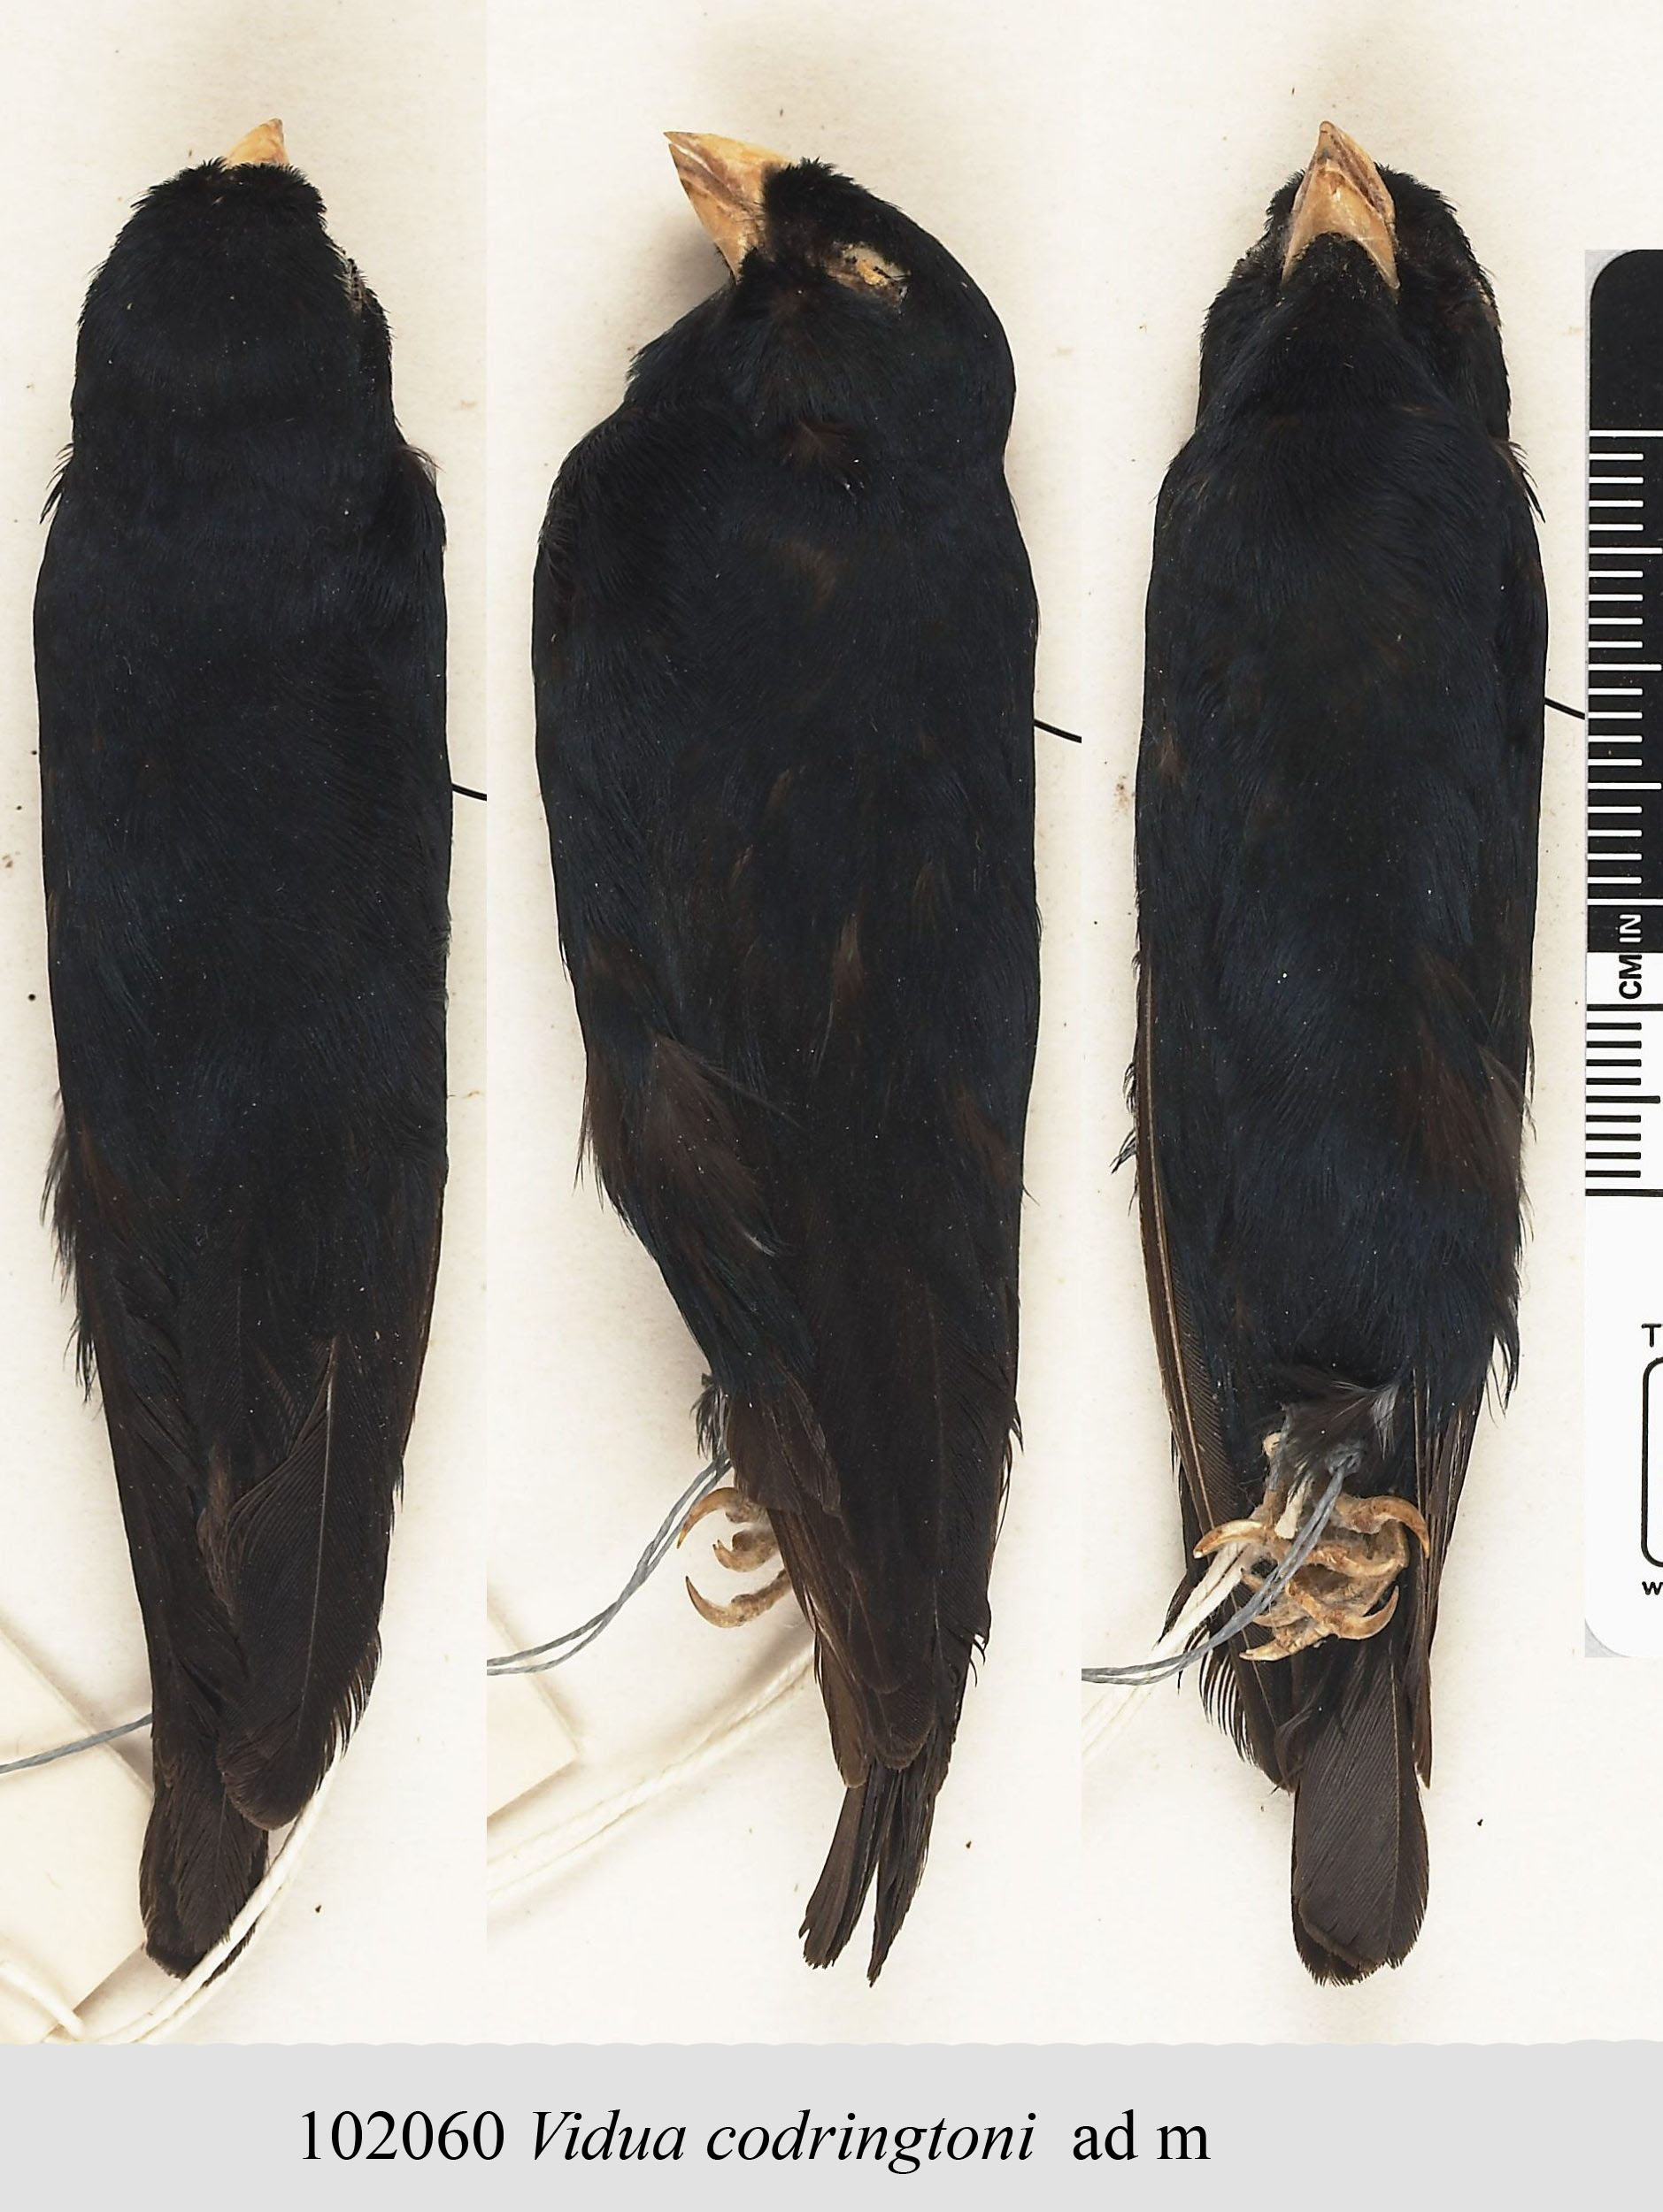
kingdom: Animalia
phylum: Chordata
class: Aves
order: Passeriformes
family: Viduidae
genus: Vidua
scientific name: Vidua codringtoni
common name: Zambezi indigobird
